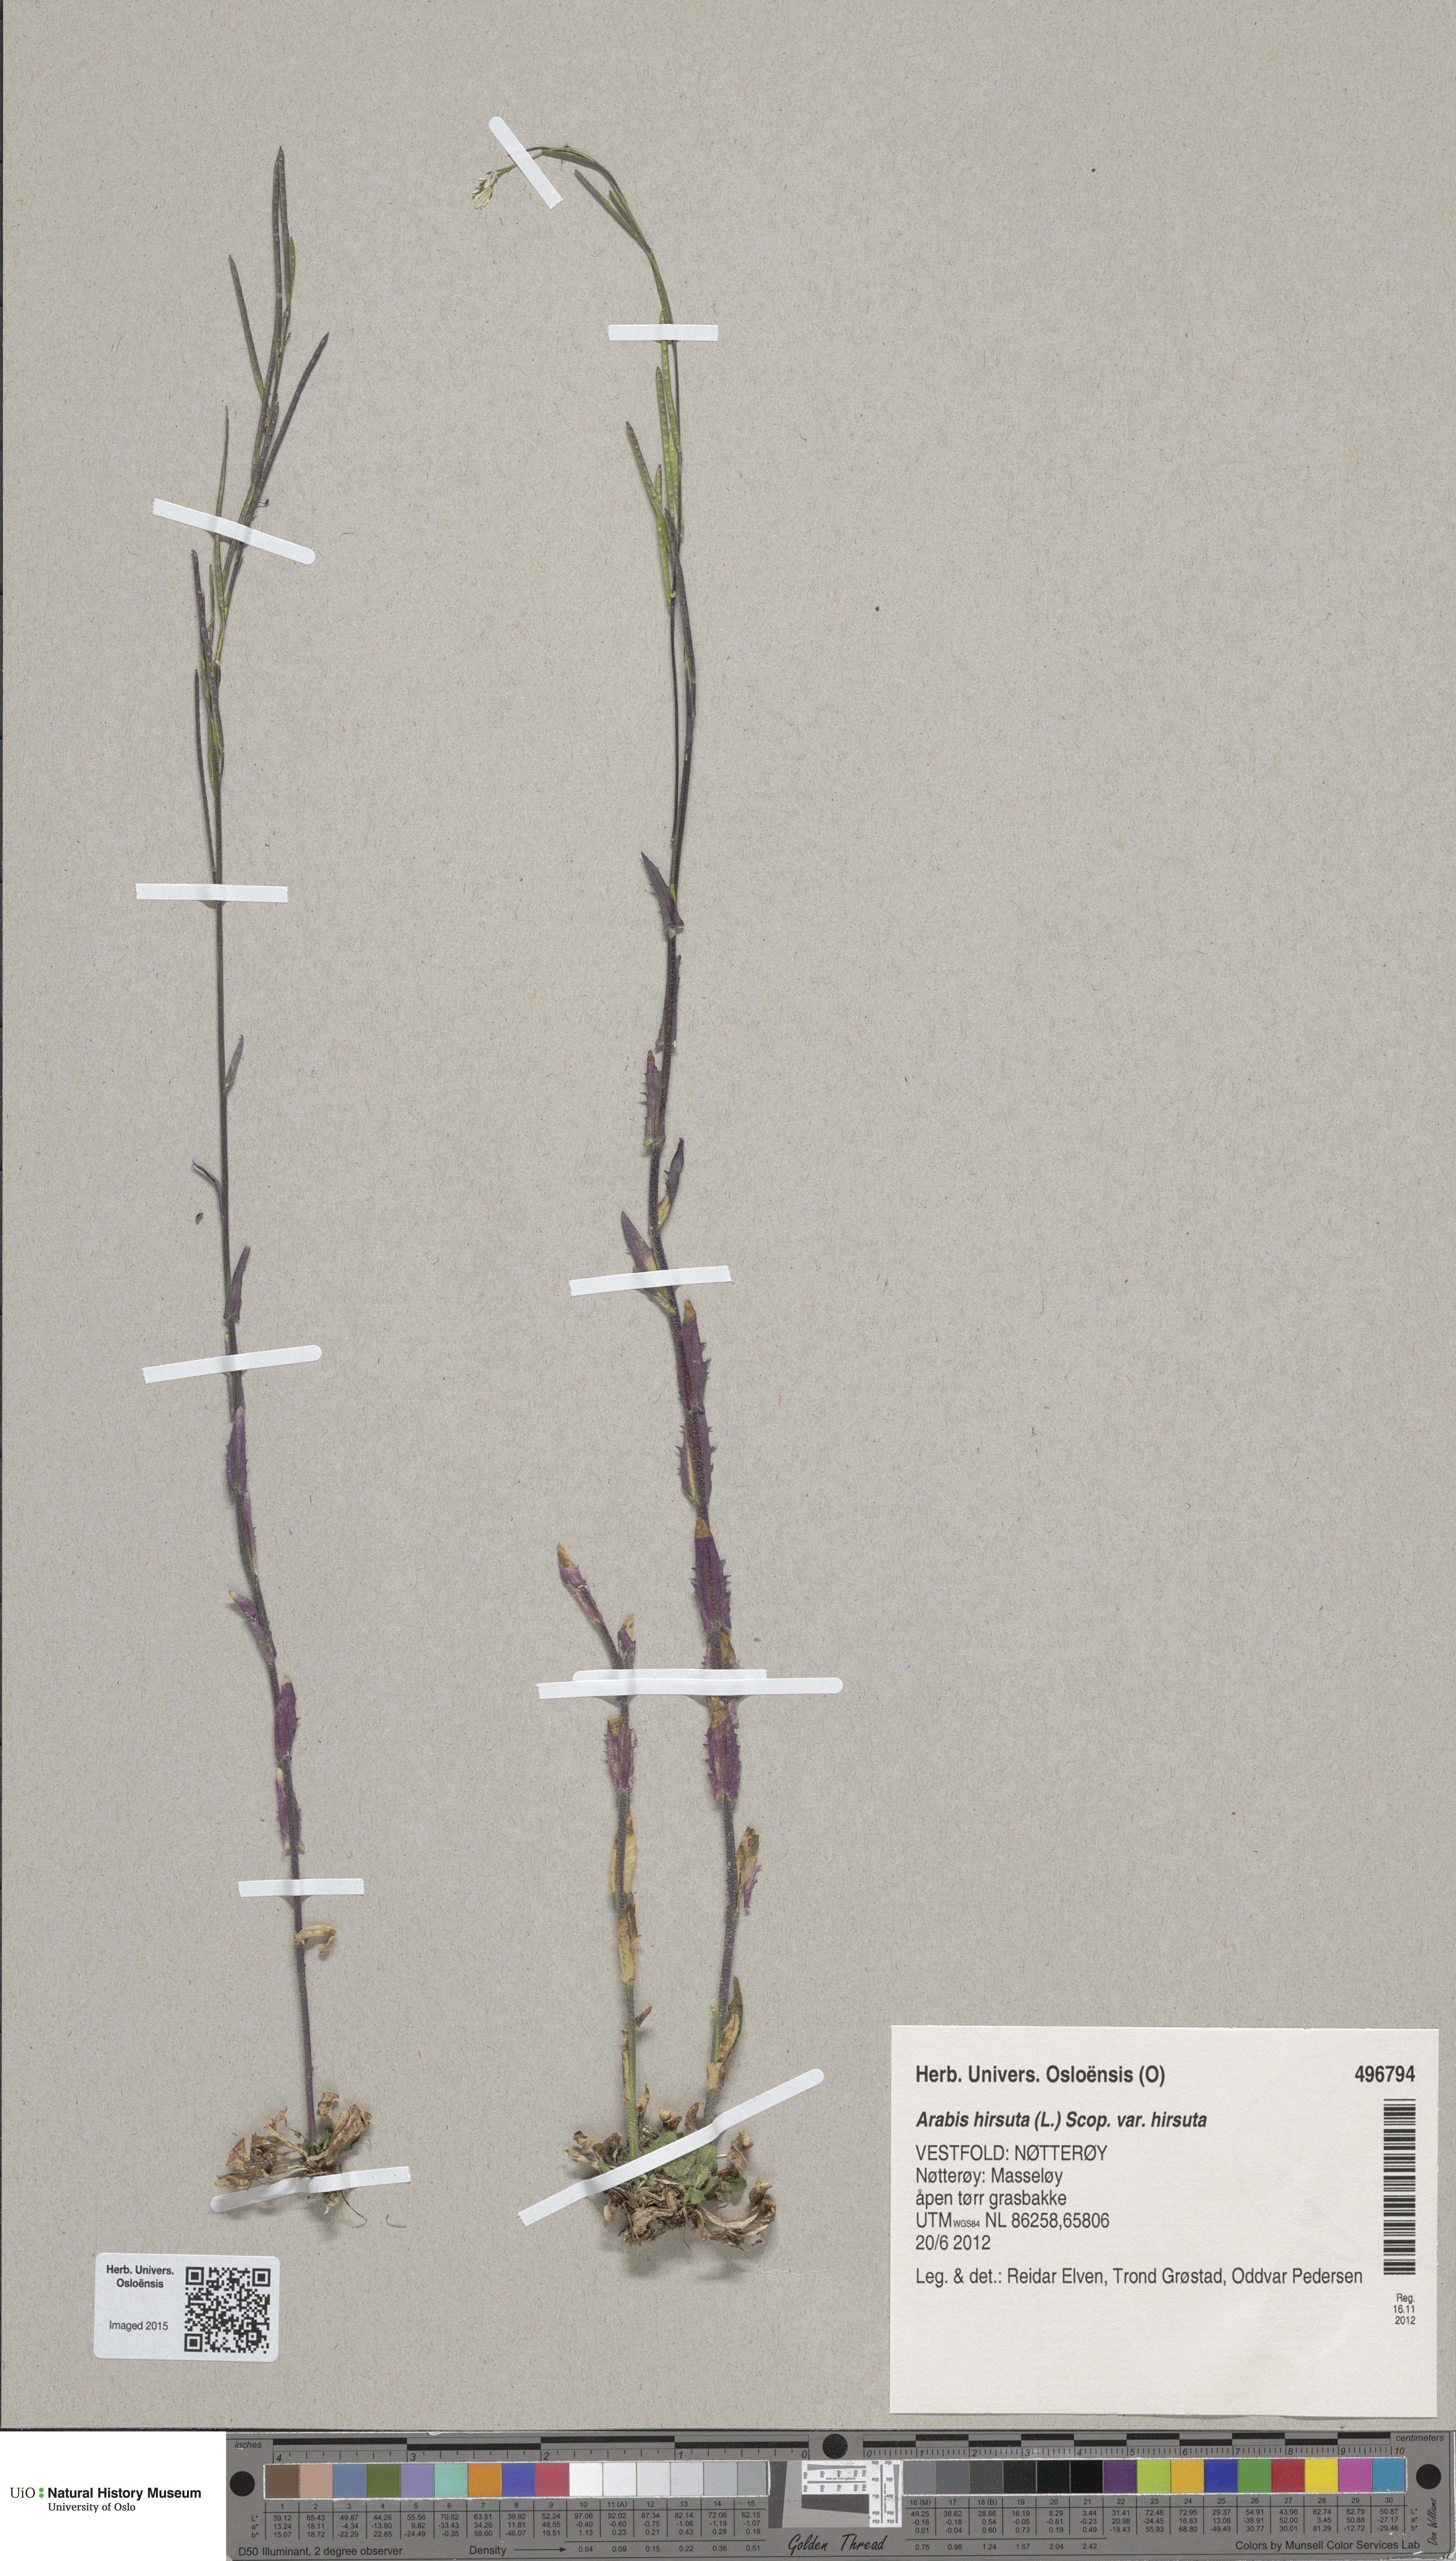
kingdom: Plantae
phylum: Tracheophyta
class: Magnoliopsida
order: Brassicales
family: Brassicaceae
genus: Arabis
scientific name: Arabis hirsuta
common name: Hairy rock-cress
